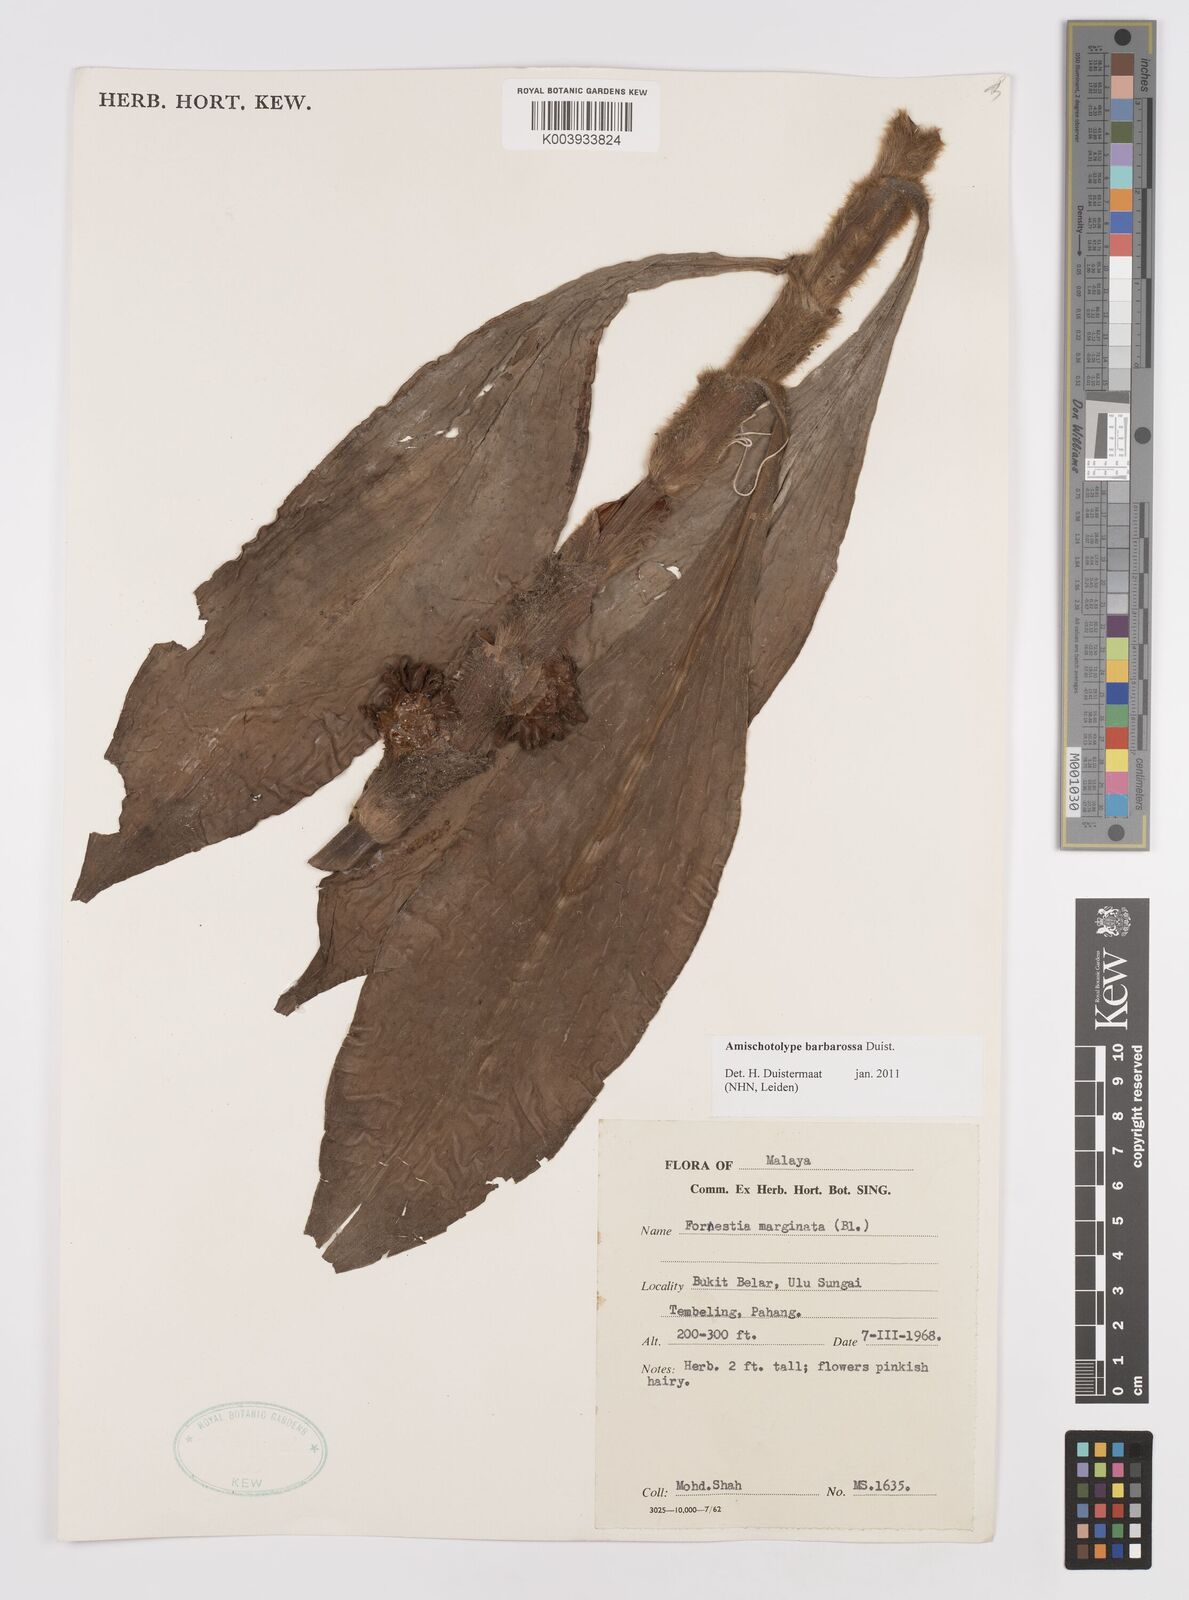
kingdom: Plantae
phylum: Tracheophyta
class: Liliopsida
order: Commelinales
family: Commelinaceae
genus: Amischotolype
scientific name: Amischotolype barbarossa
